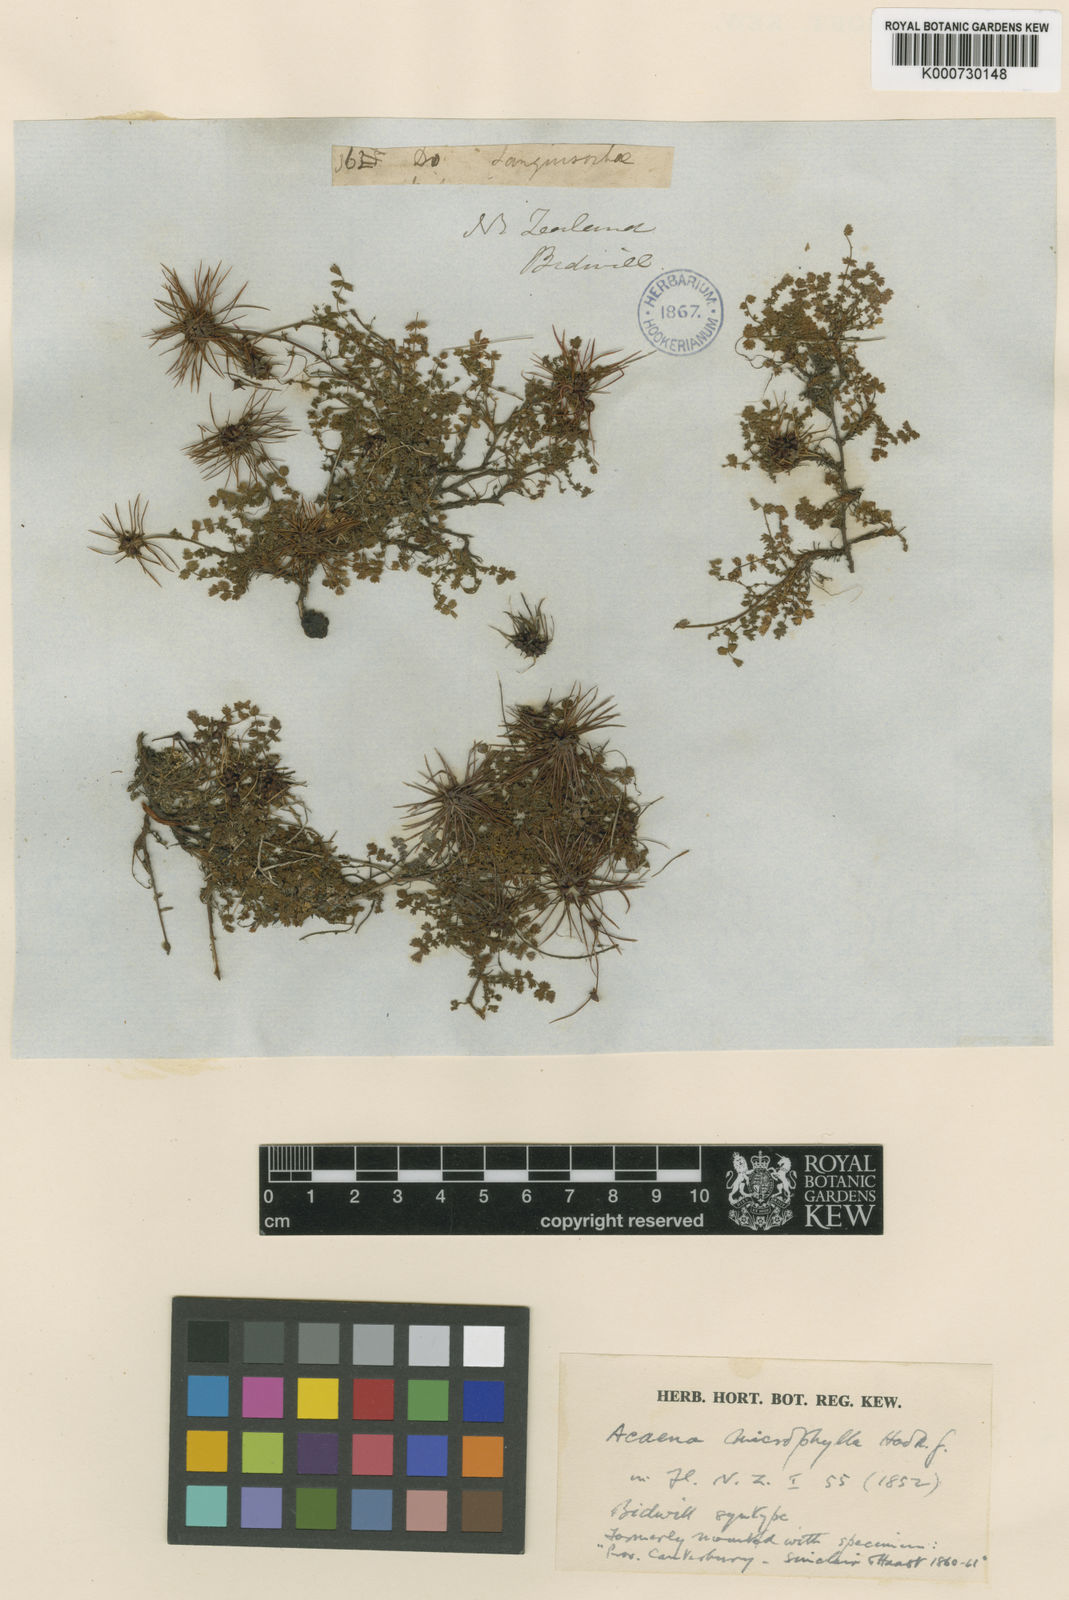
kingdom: Plantae
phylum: Tracheophyta
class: Magnoliopsida
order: Rosales
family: Rosaceae
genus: Acaena
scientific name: Acaena microphylla
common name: New zealand-bur
